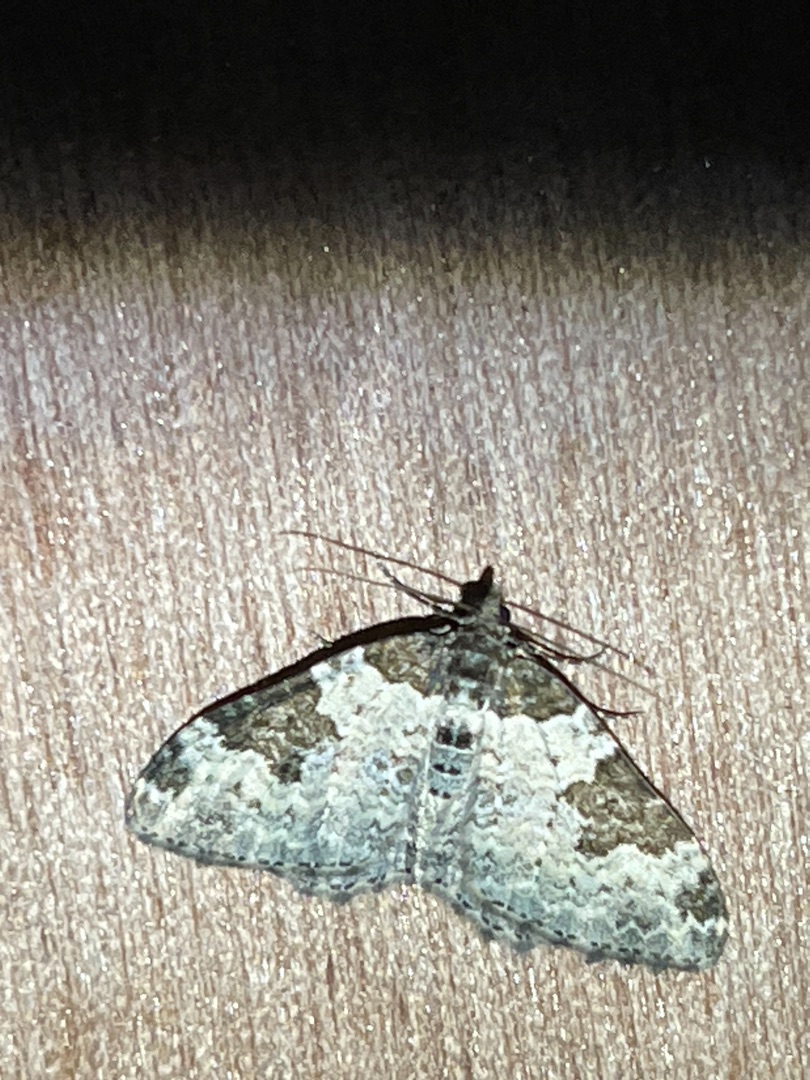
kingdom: Animalia
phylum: Arthropoda
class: Insecta
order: Lepidoptera
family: Geometridae
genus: Xanthorhoe
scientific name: Xanthorhoe fluctuata
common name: Sortbæltet bladmåler
